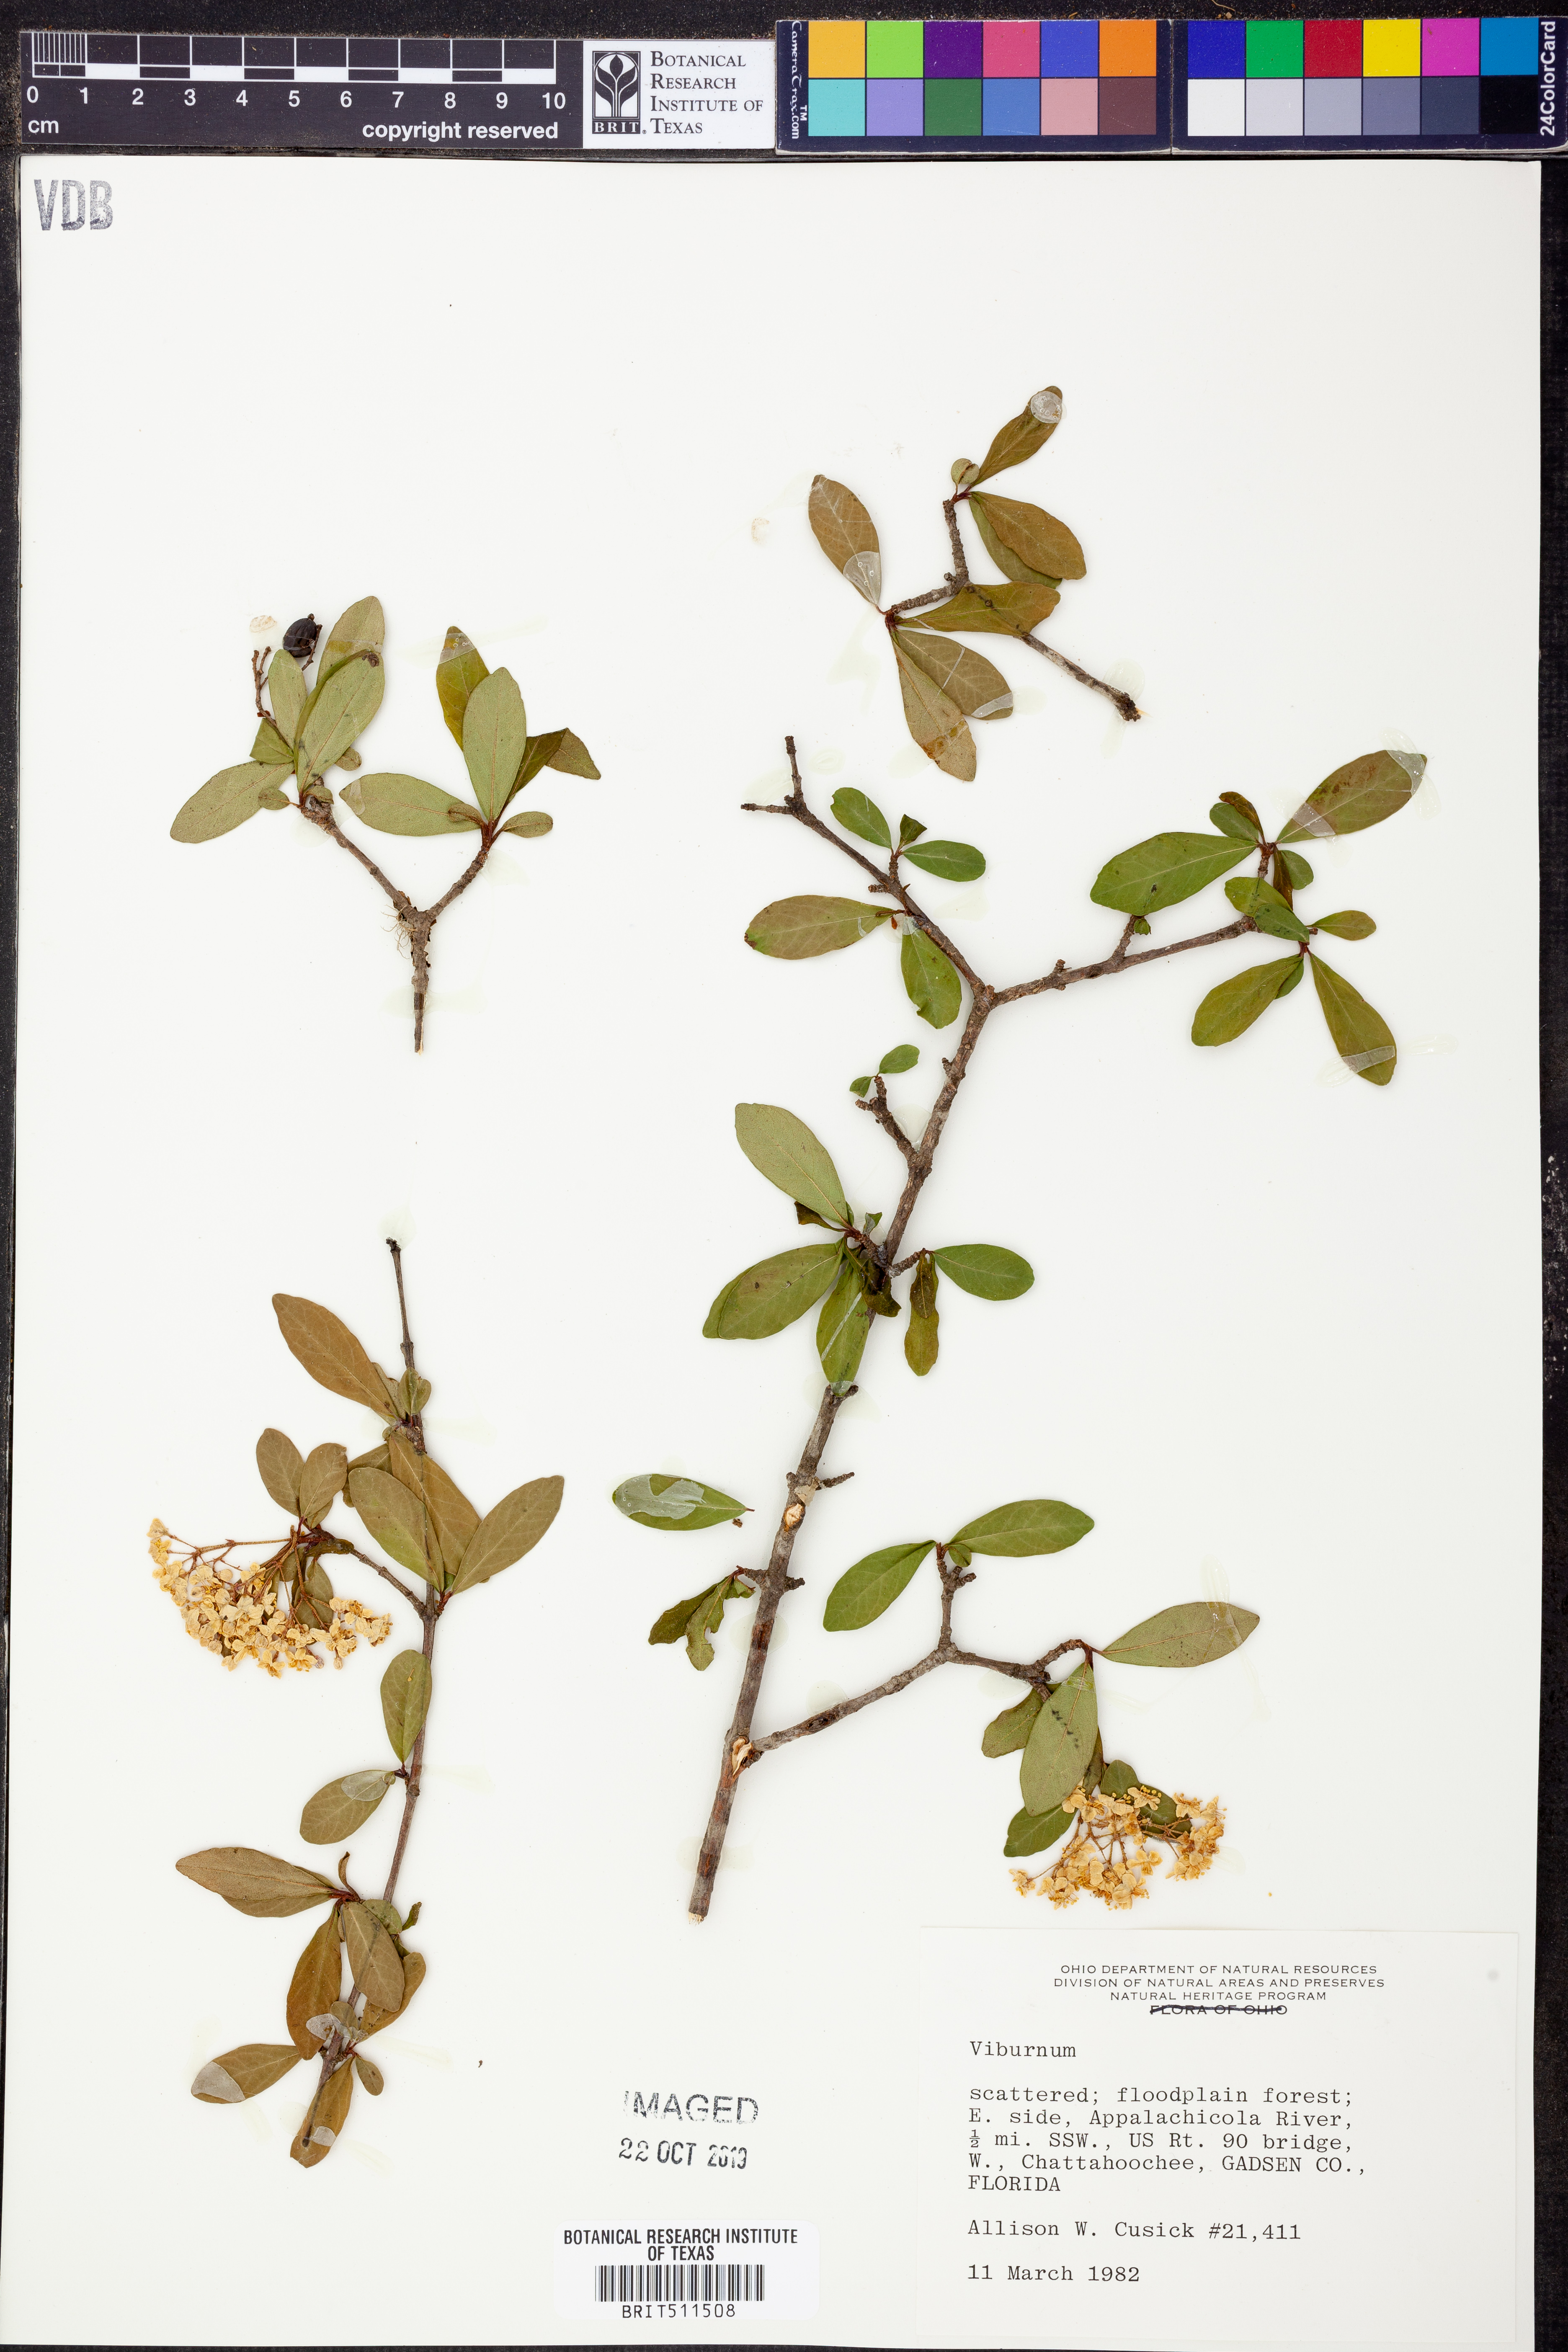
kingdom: Plantae
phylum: Tracheophyta
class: Magnoliopsida
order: Dipsacales
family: Viburnaceae
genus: Viburnum
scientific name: Viburnum
